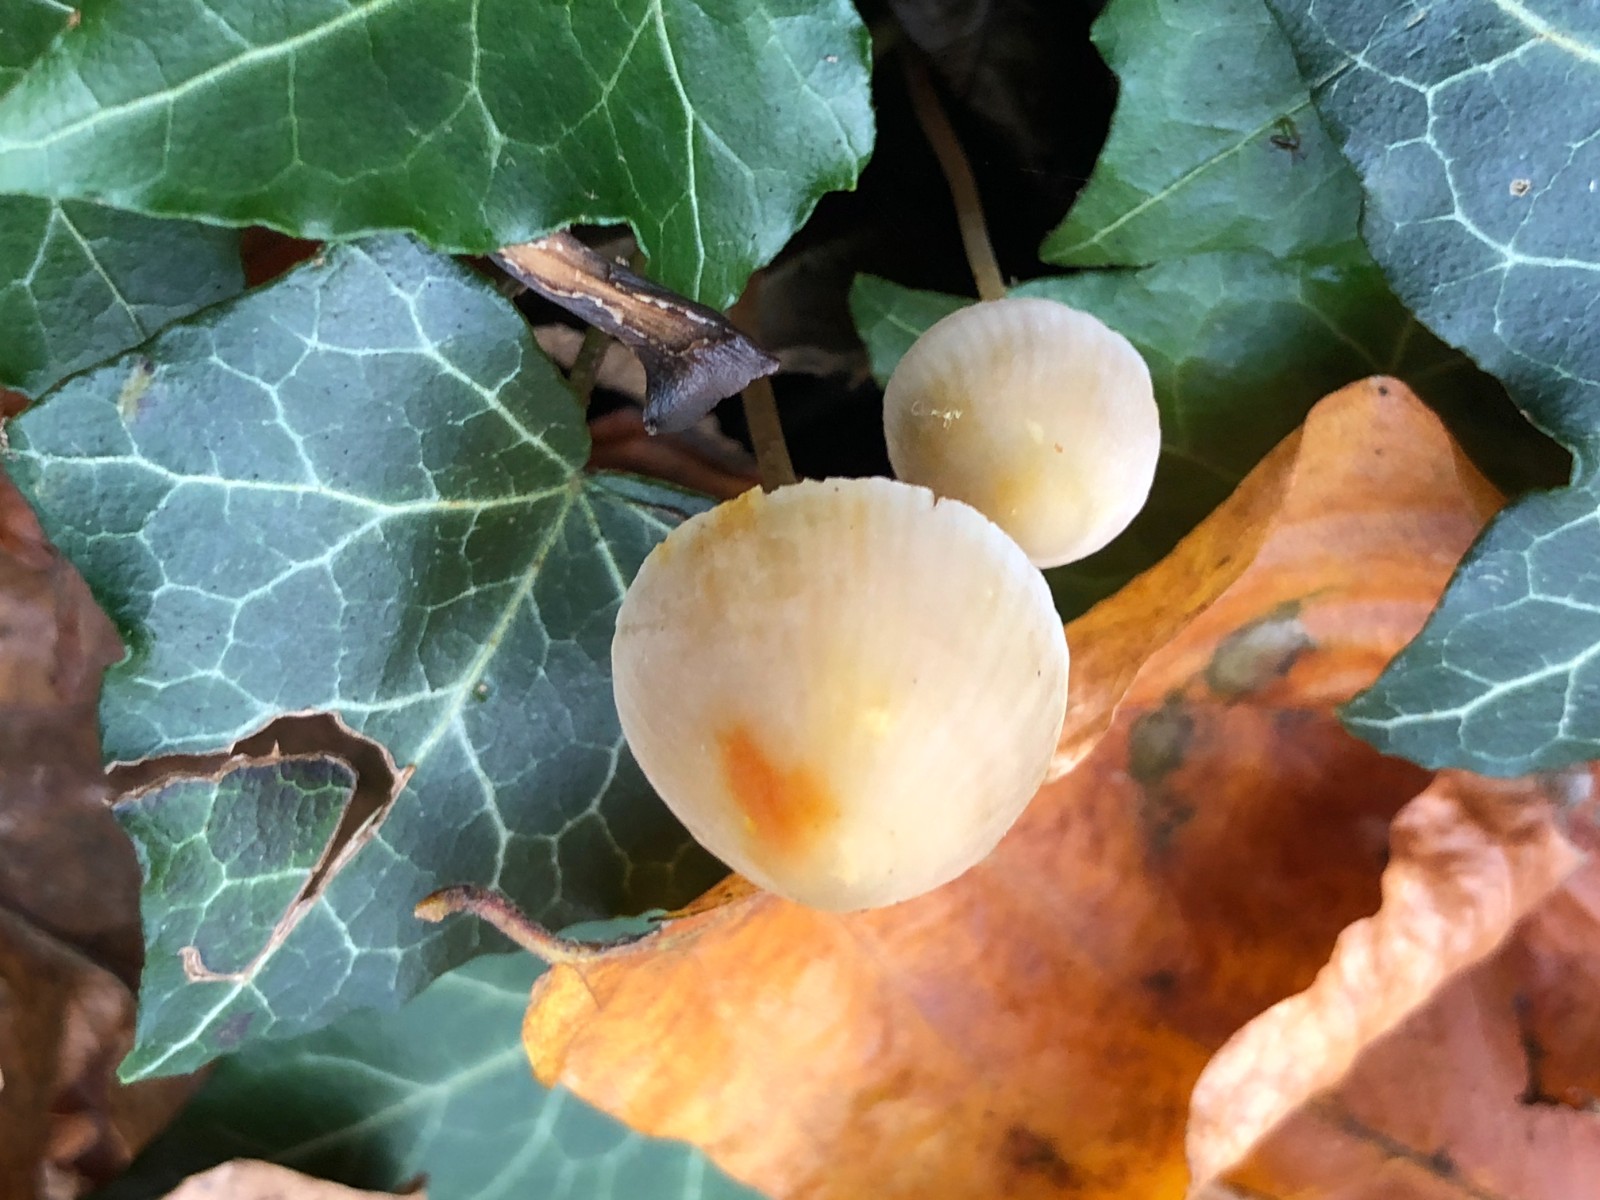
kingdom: Fungi
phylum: Basidiomycota
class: Agaricomycetes
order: Agaricales
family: Mycenaceae
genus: Mycena
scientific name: Mycena crocata
